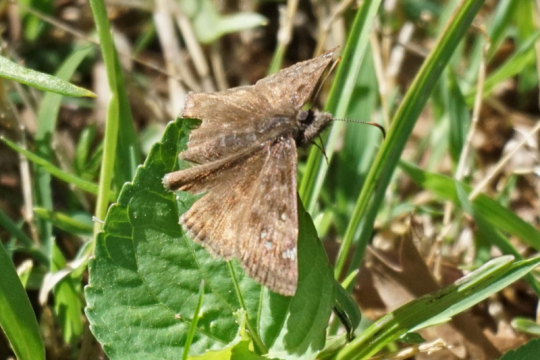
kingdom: Animalia
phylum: Arthropoda
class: Insecta
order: Lepidoptera
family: Hesperiidae
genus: Gesta
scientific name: Gesta
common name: Horace's Duskywing
